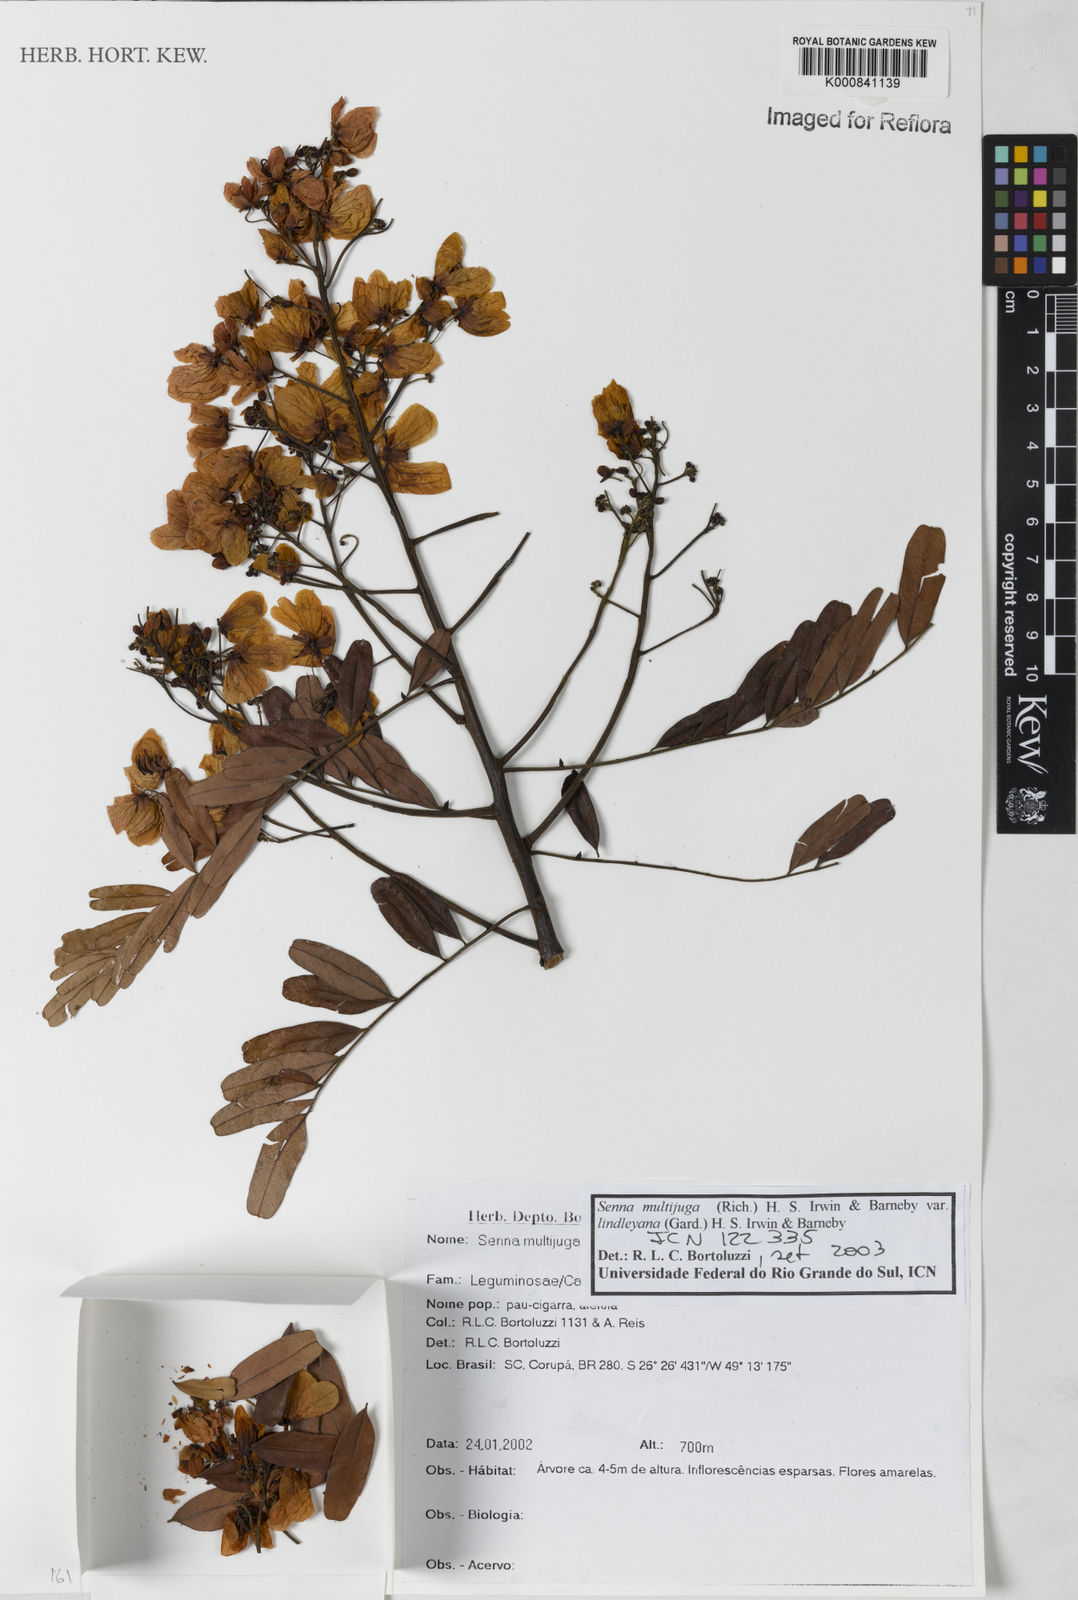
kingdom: Plantae
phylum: Tracheophyta
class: Magnoliopsida
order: Fabales
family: Fabaceae
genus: Senna
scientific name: Senna multijuga
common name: False sicklepod
